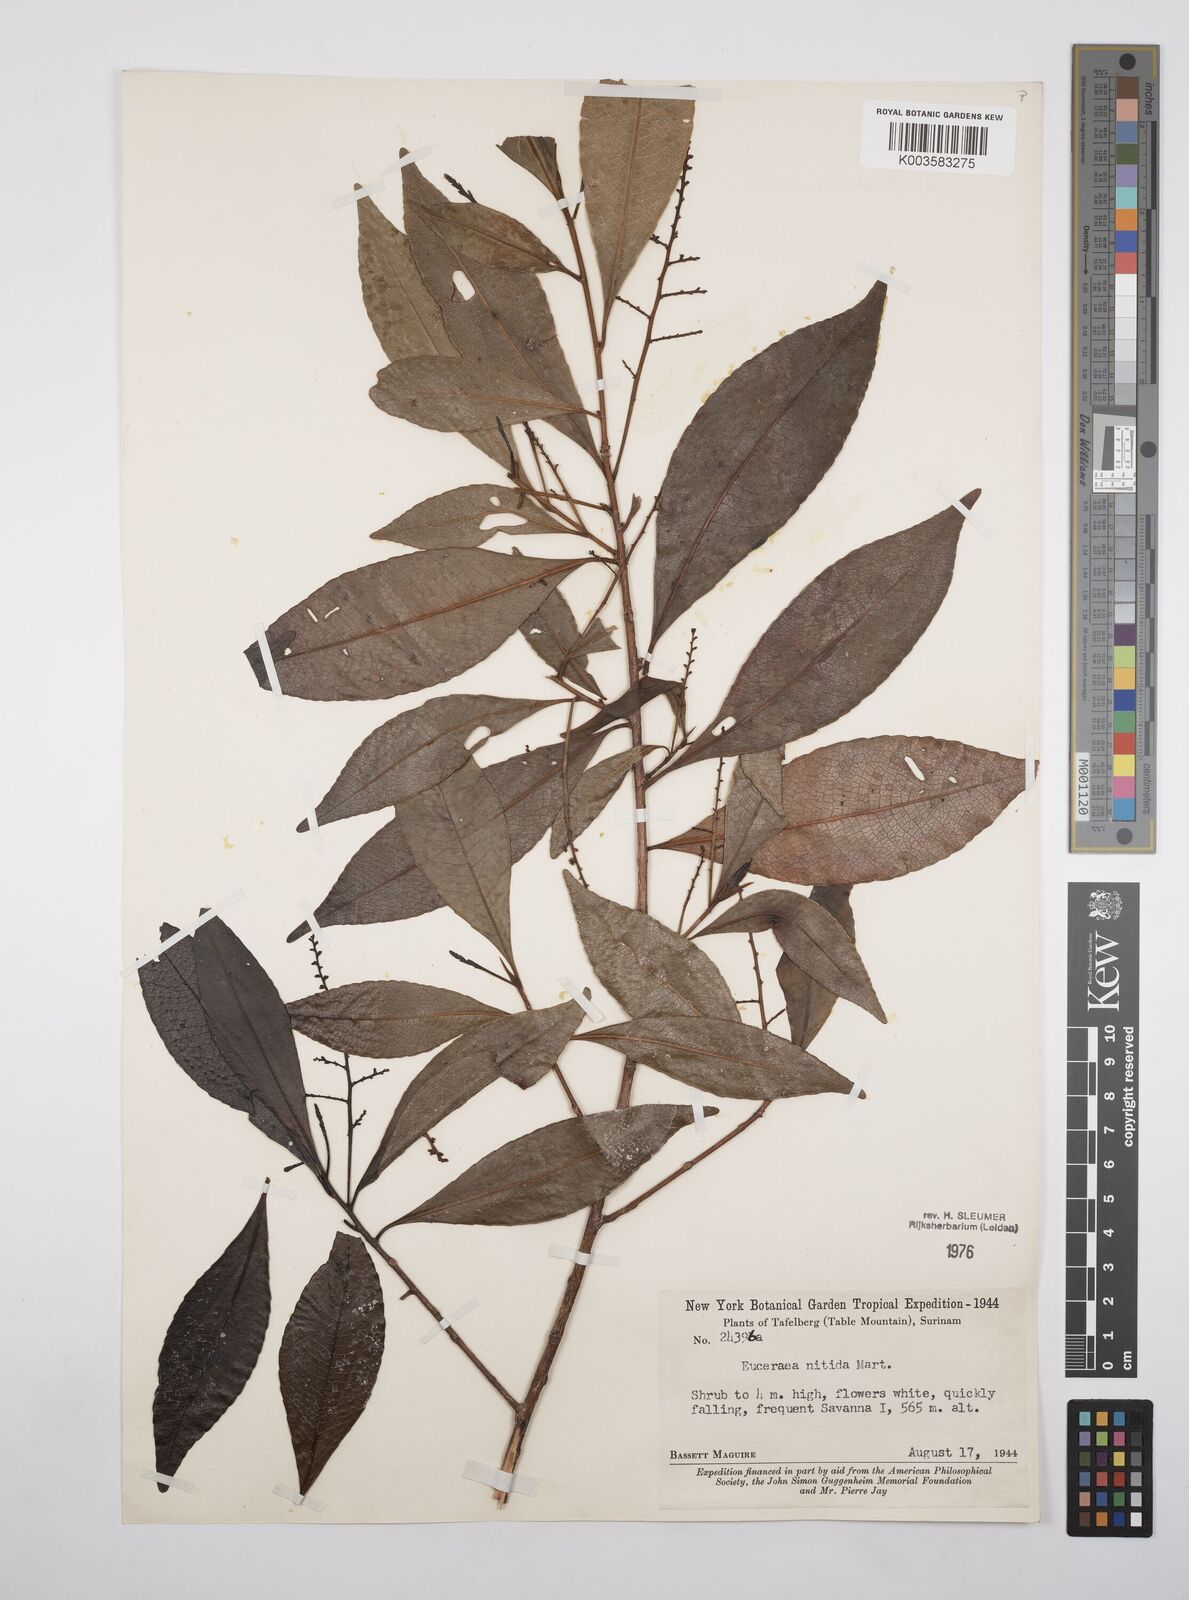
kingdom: Plantae
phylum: Tracheophyta
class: Magnoliopsida
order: Malpighiales
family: Salicaceae
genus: Casearia
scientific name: Casearia euceraea
